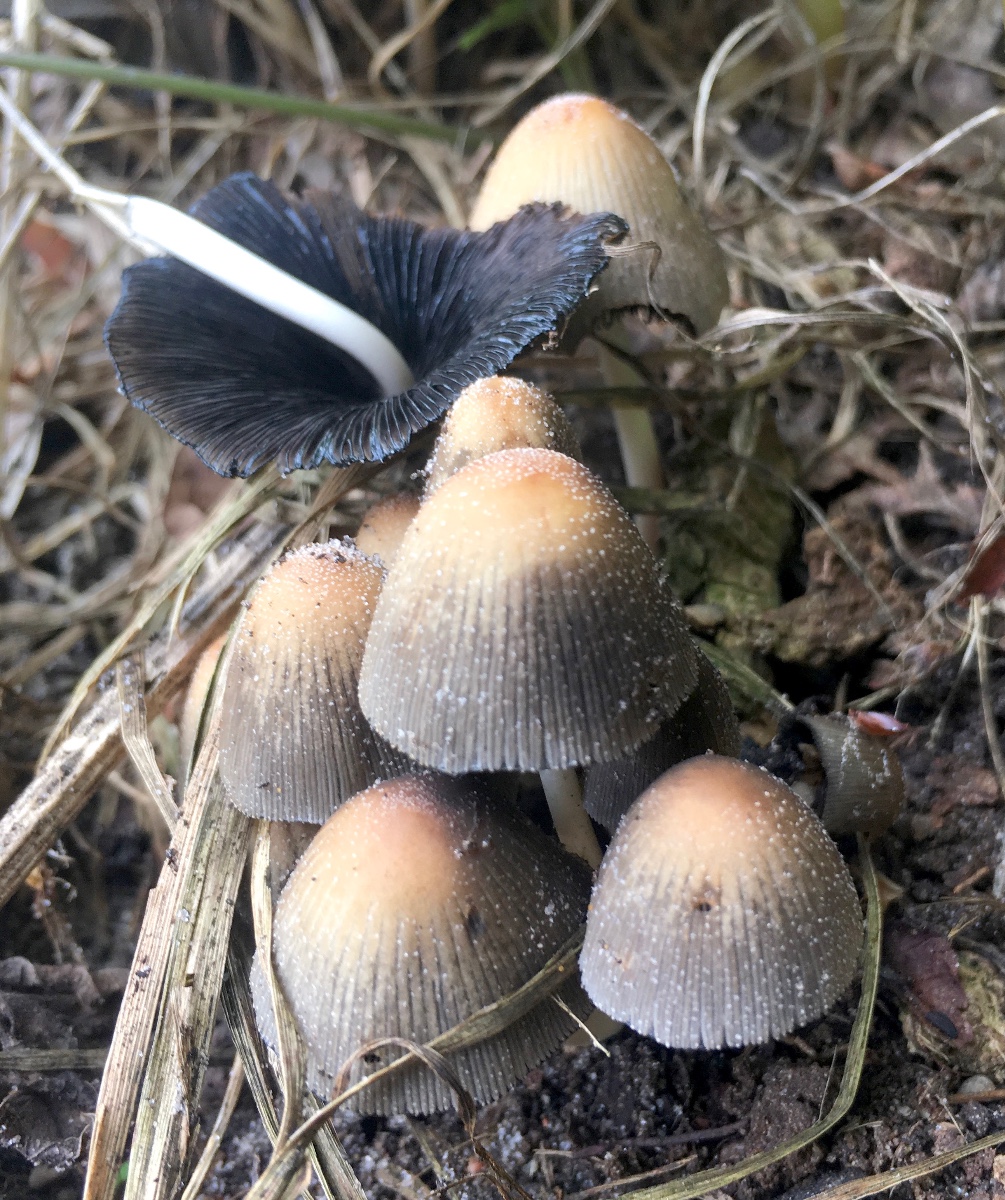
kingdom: Fungi
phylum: Basidiomycota
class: Agaricomycetes
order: Agaricales
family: Psathyrellaceae
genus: Coprinellus
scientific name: Coprinellus micaceus
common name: glimmer-blækhat
